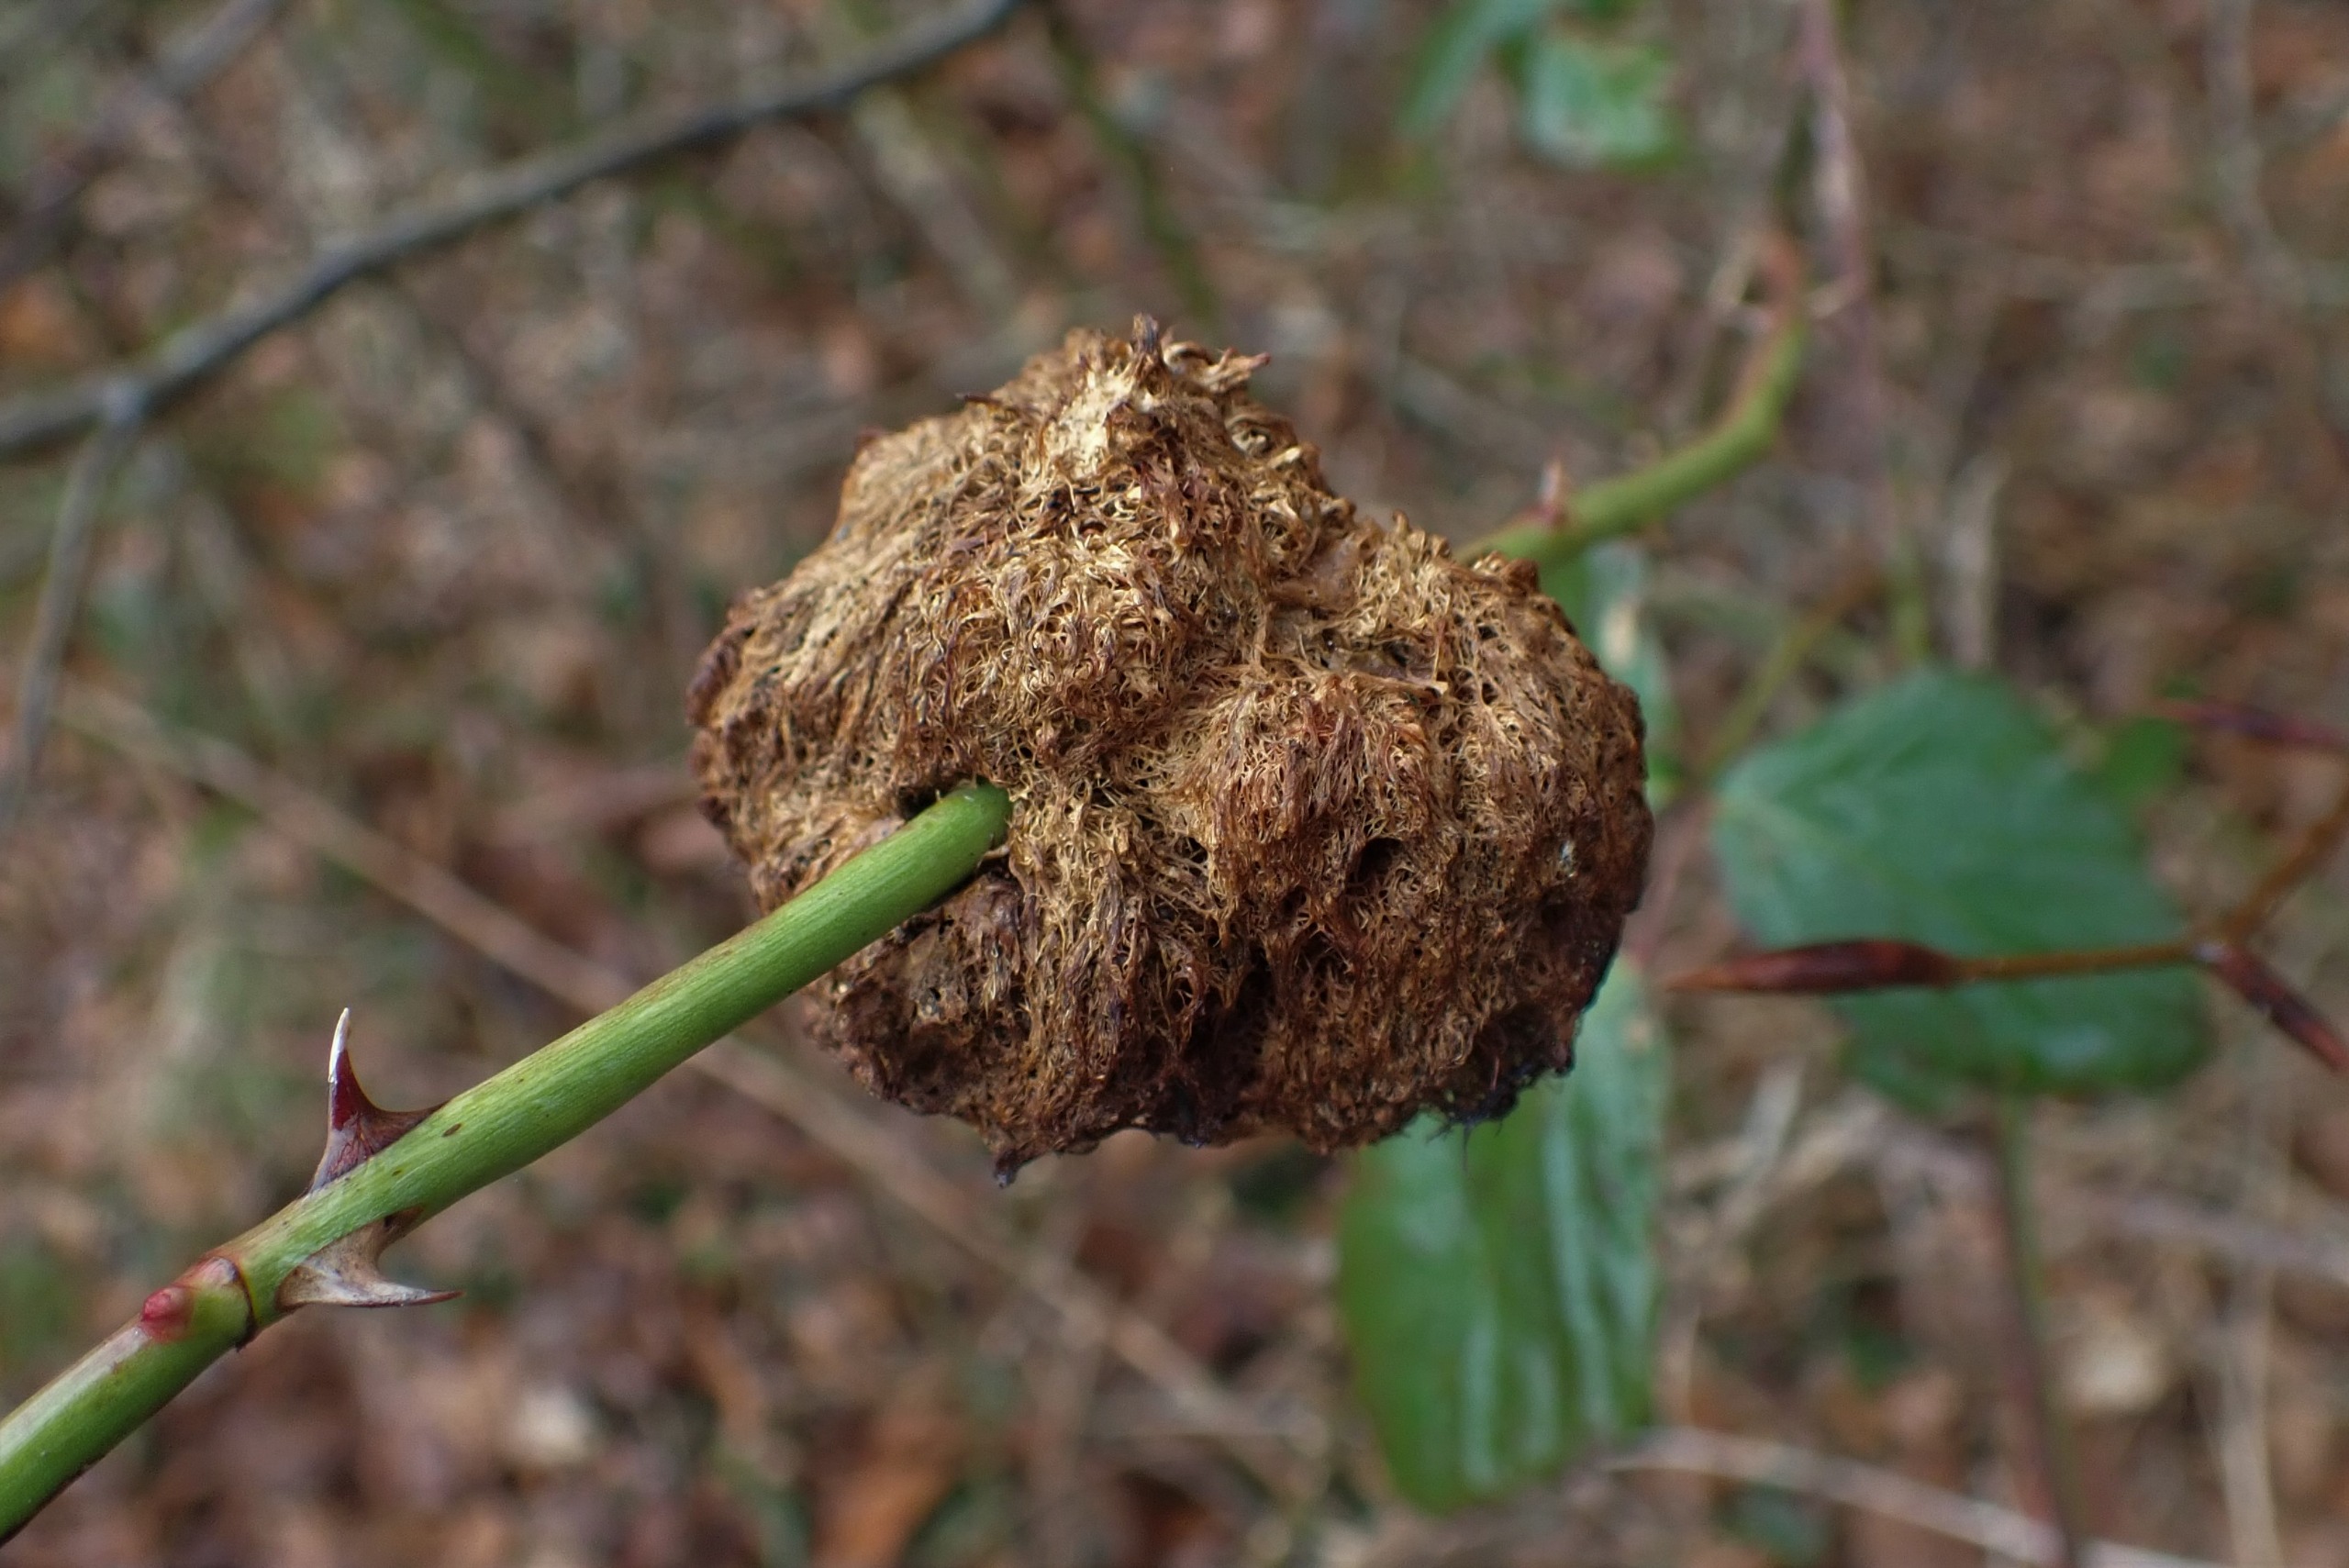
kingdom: Animalia
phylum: Arthropoda
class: Insecta
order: Hymenoptera
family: Cynipidae
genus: Diplolepis
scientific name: Diplolepis rosae
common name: Bedeguargalhveps
